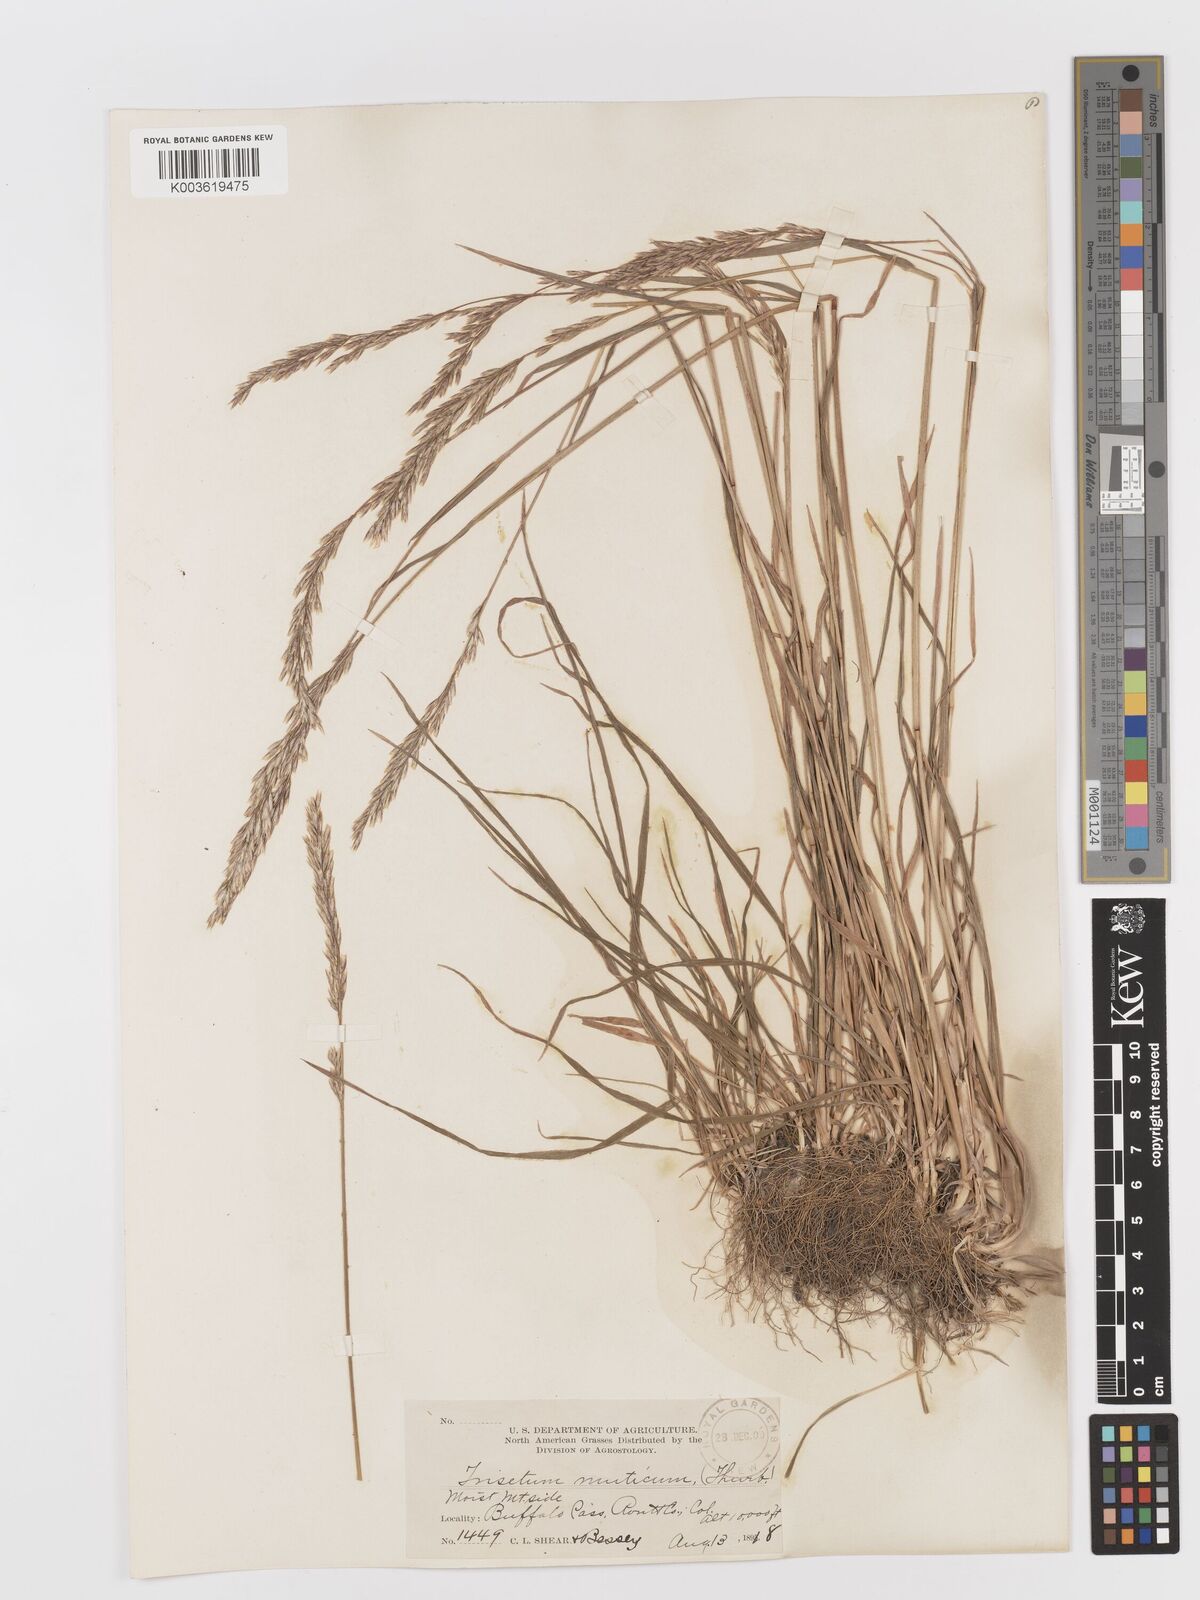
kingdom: Plantae
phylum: Tracheophyta
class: Liliopsida
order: Poales
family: Poaceae
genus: Graphephorum
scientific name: Graphephorum wolfii
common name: Wolf's trisetum
